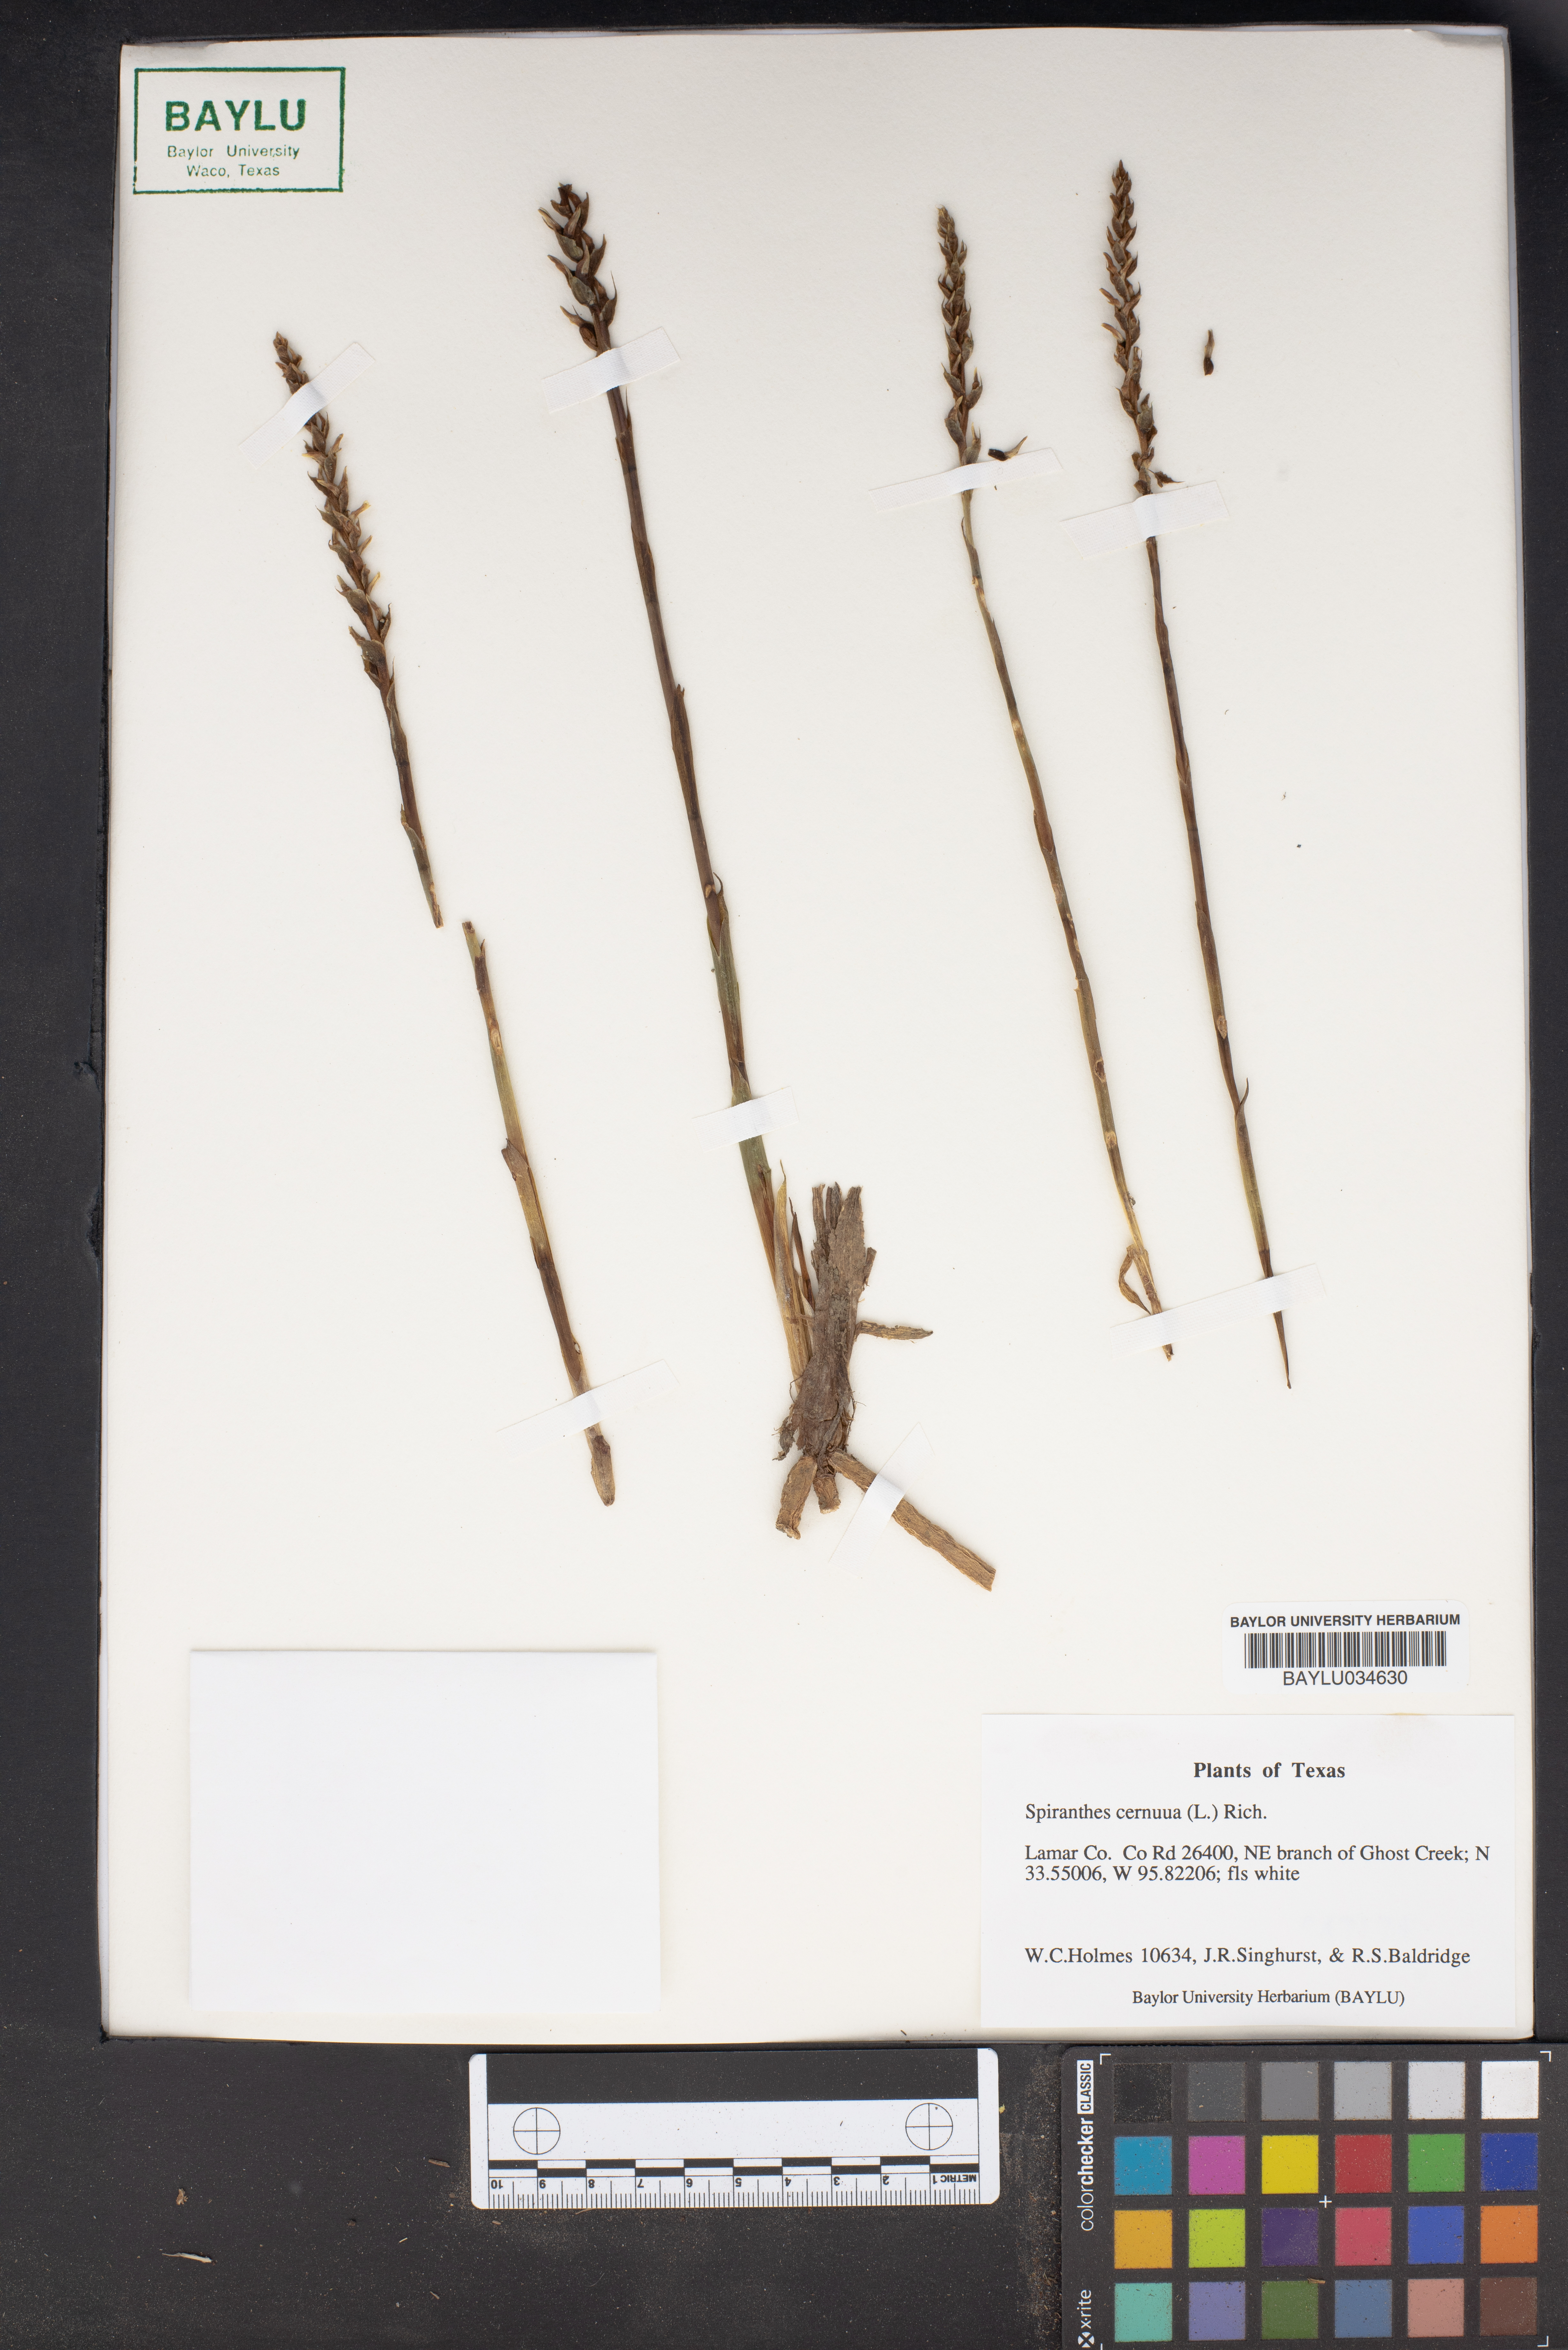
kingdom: Plantae
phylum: Tracheophyta
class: Liliopsida
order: Asparagales
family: Orchidaceae
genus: Spiranthes
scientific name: Spiranthes cernua
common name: Dropping ladies'-tresses
